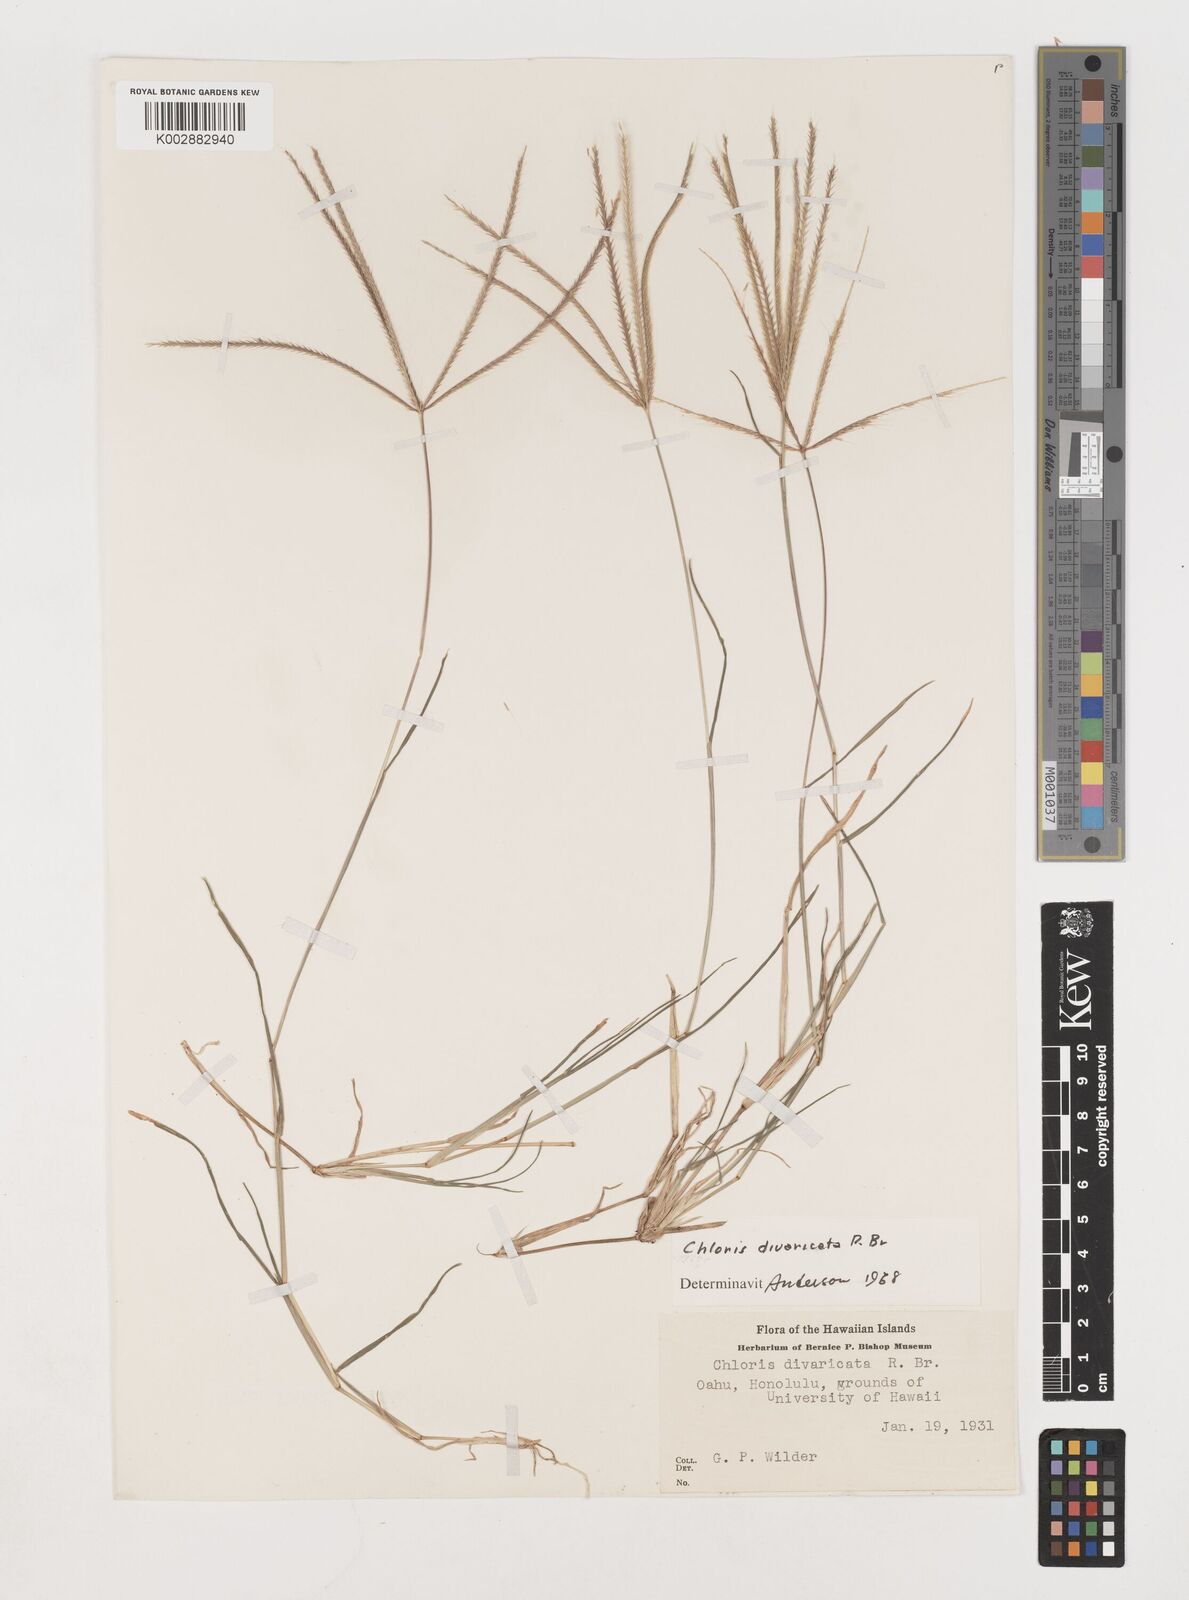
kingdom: Plantae
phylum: Tracheophyta
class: Liliopsida
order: Poales
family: Poaceae
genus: Chloris
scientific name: Chloris divaricata
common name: Spreading windmill grass
